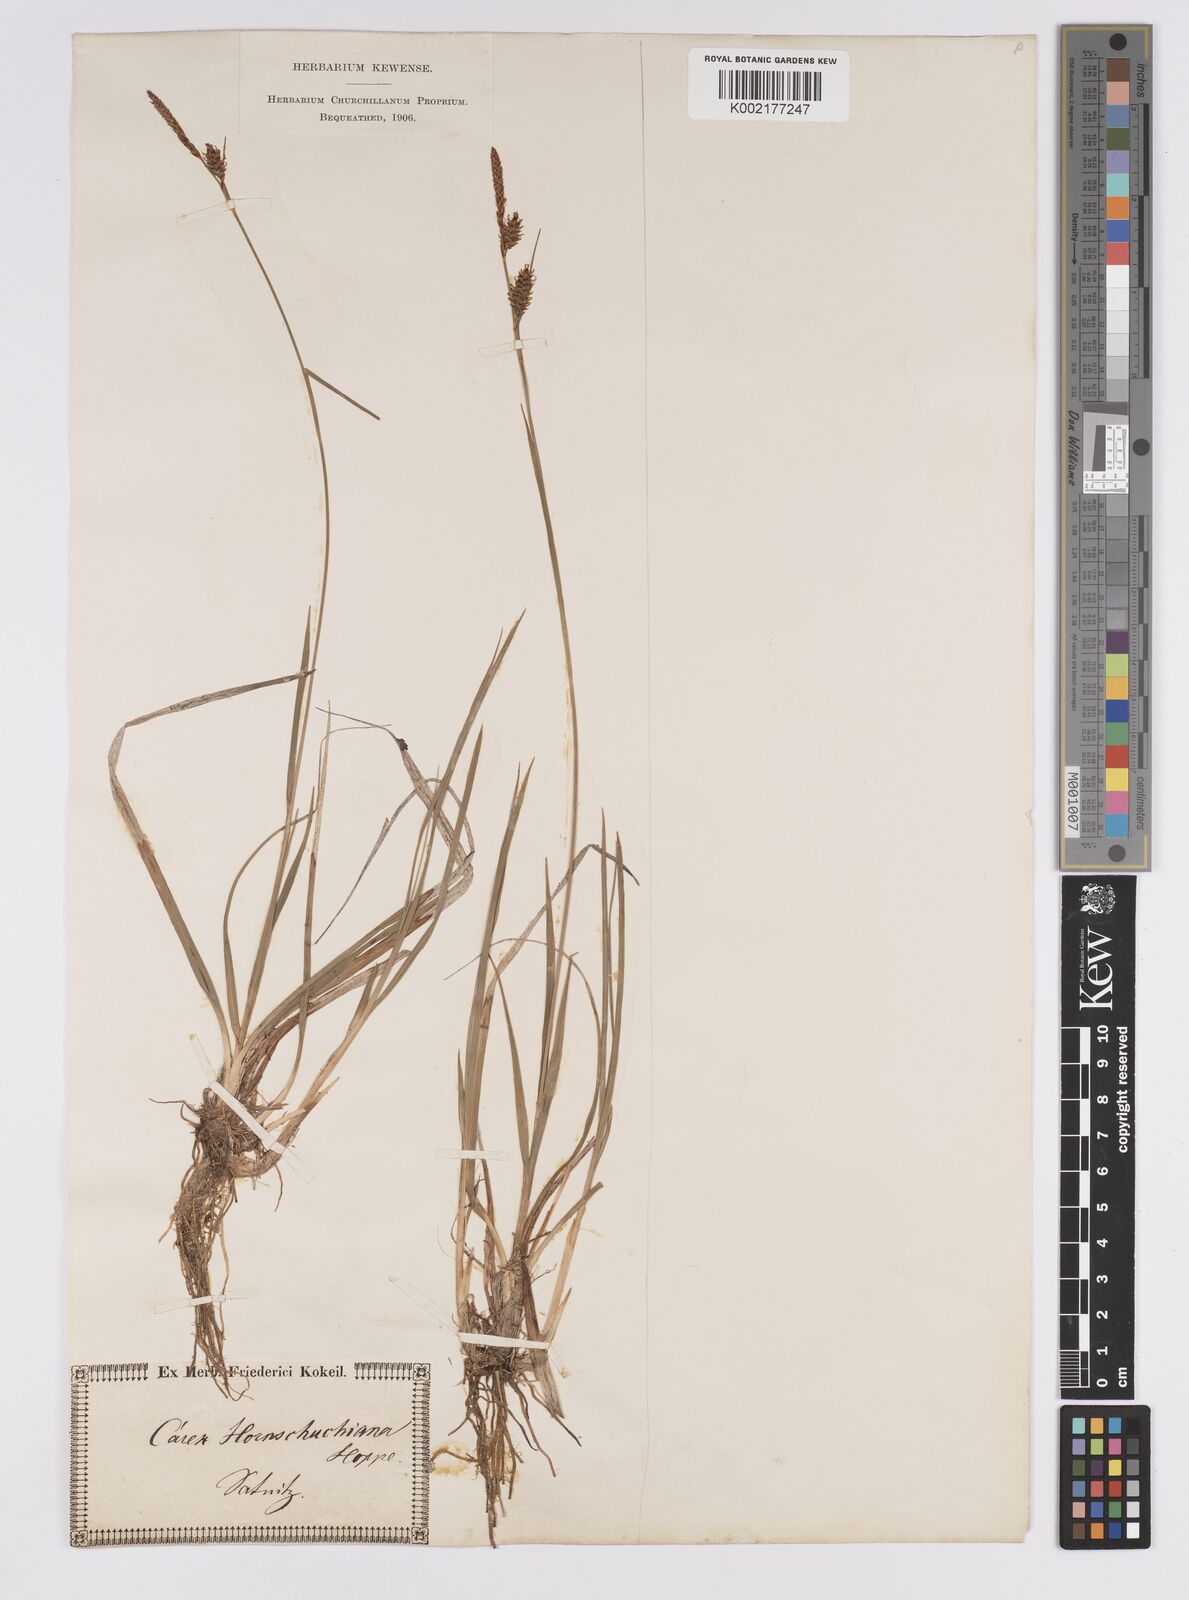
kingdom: Plantae
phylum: Tracheophyta
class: Liliopsida
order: Poales
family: Cyperaceae
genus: Carex
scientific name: Carex hostiana
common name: Tawny sedge
